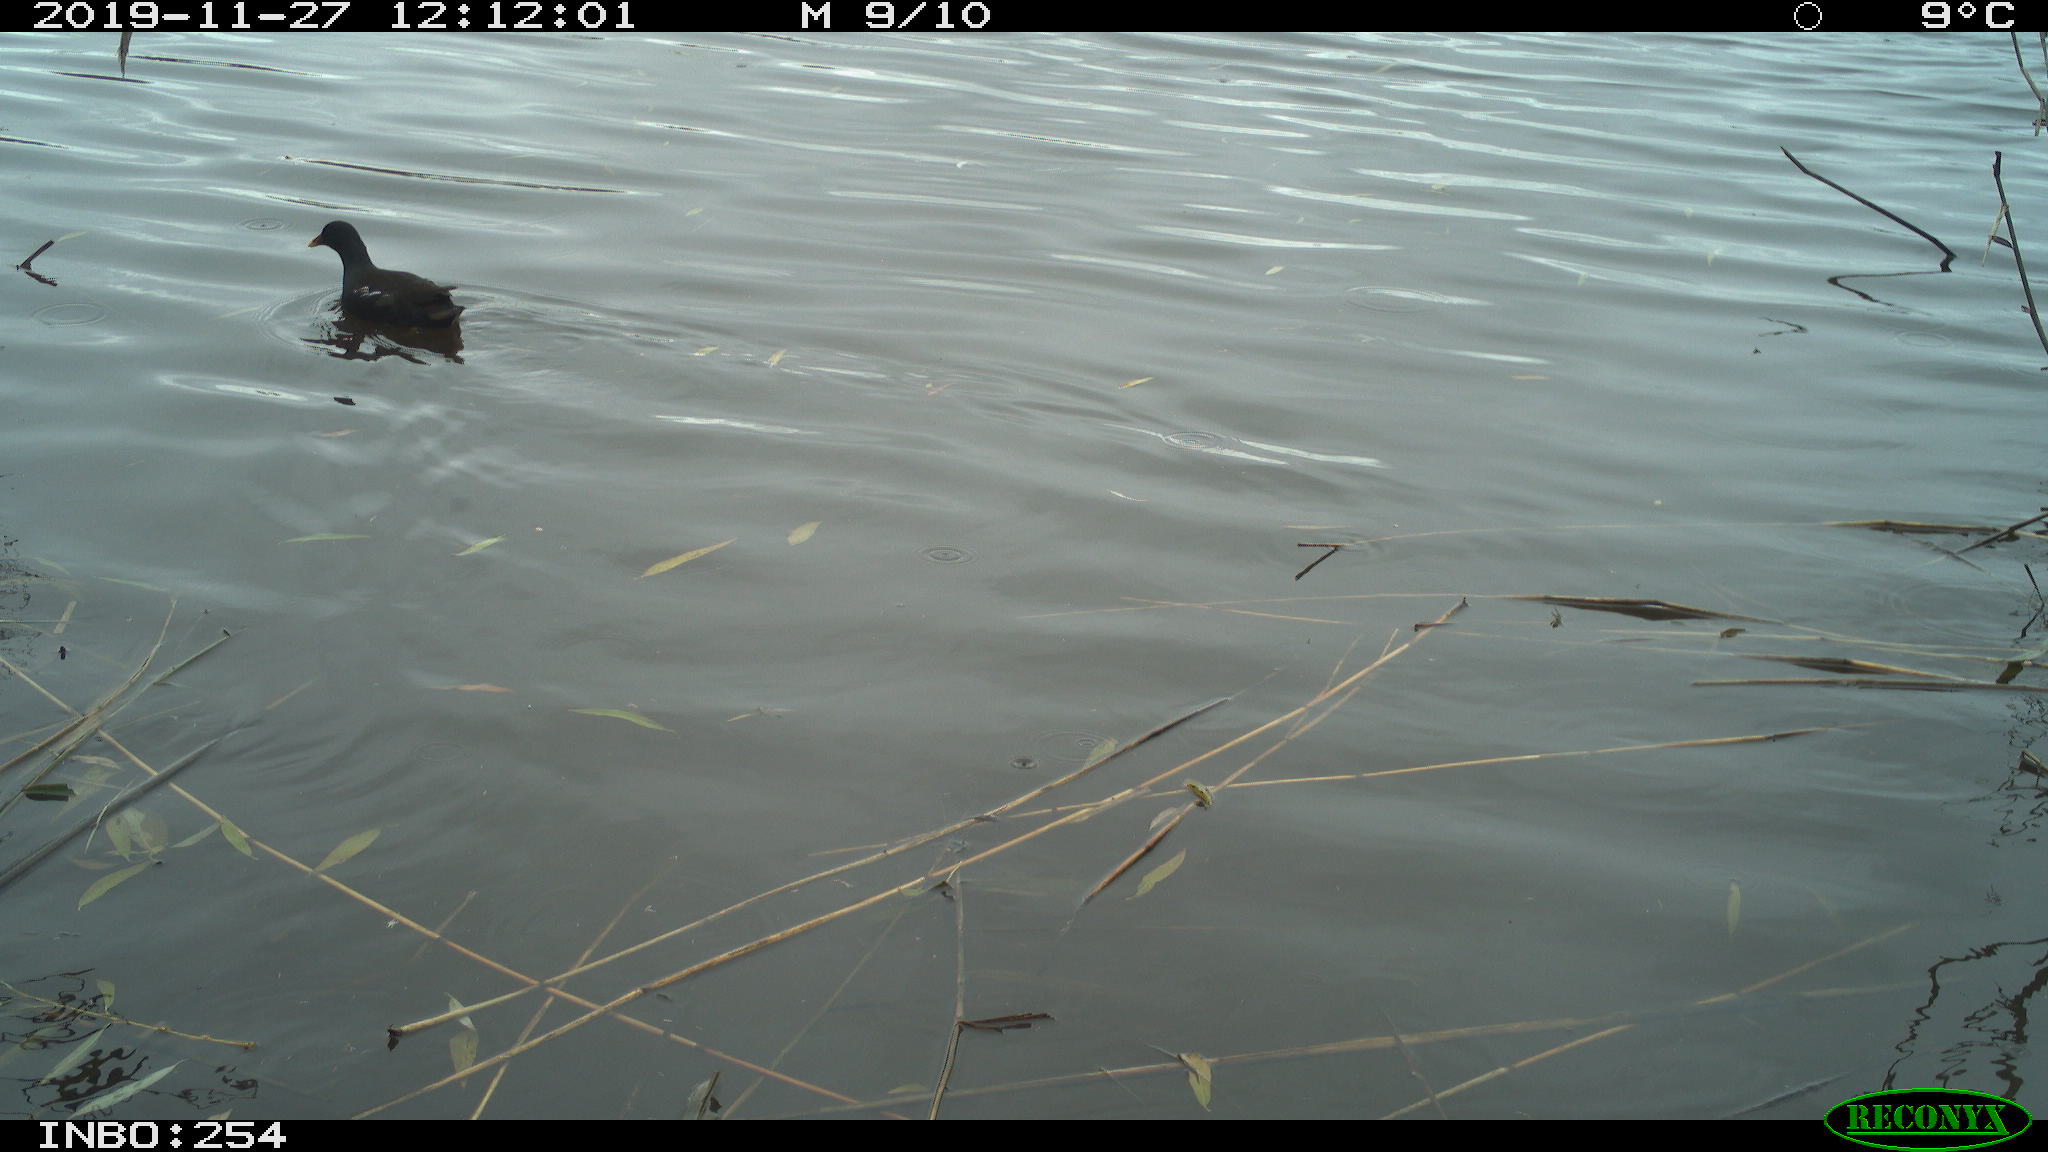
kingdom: Animalia
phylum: Chordata
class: Aves
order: Gruiformes
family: Rallidae
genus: Gallinula
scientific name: Gallinula chloropus
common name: Common moorhen
